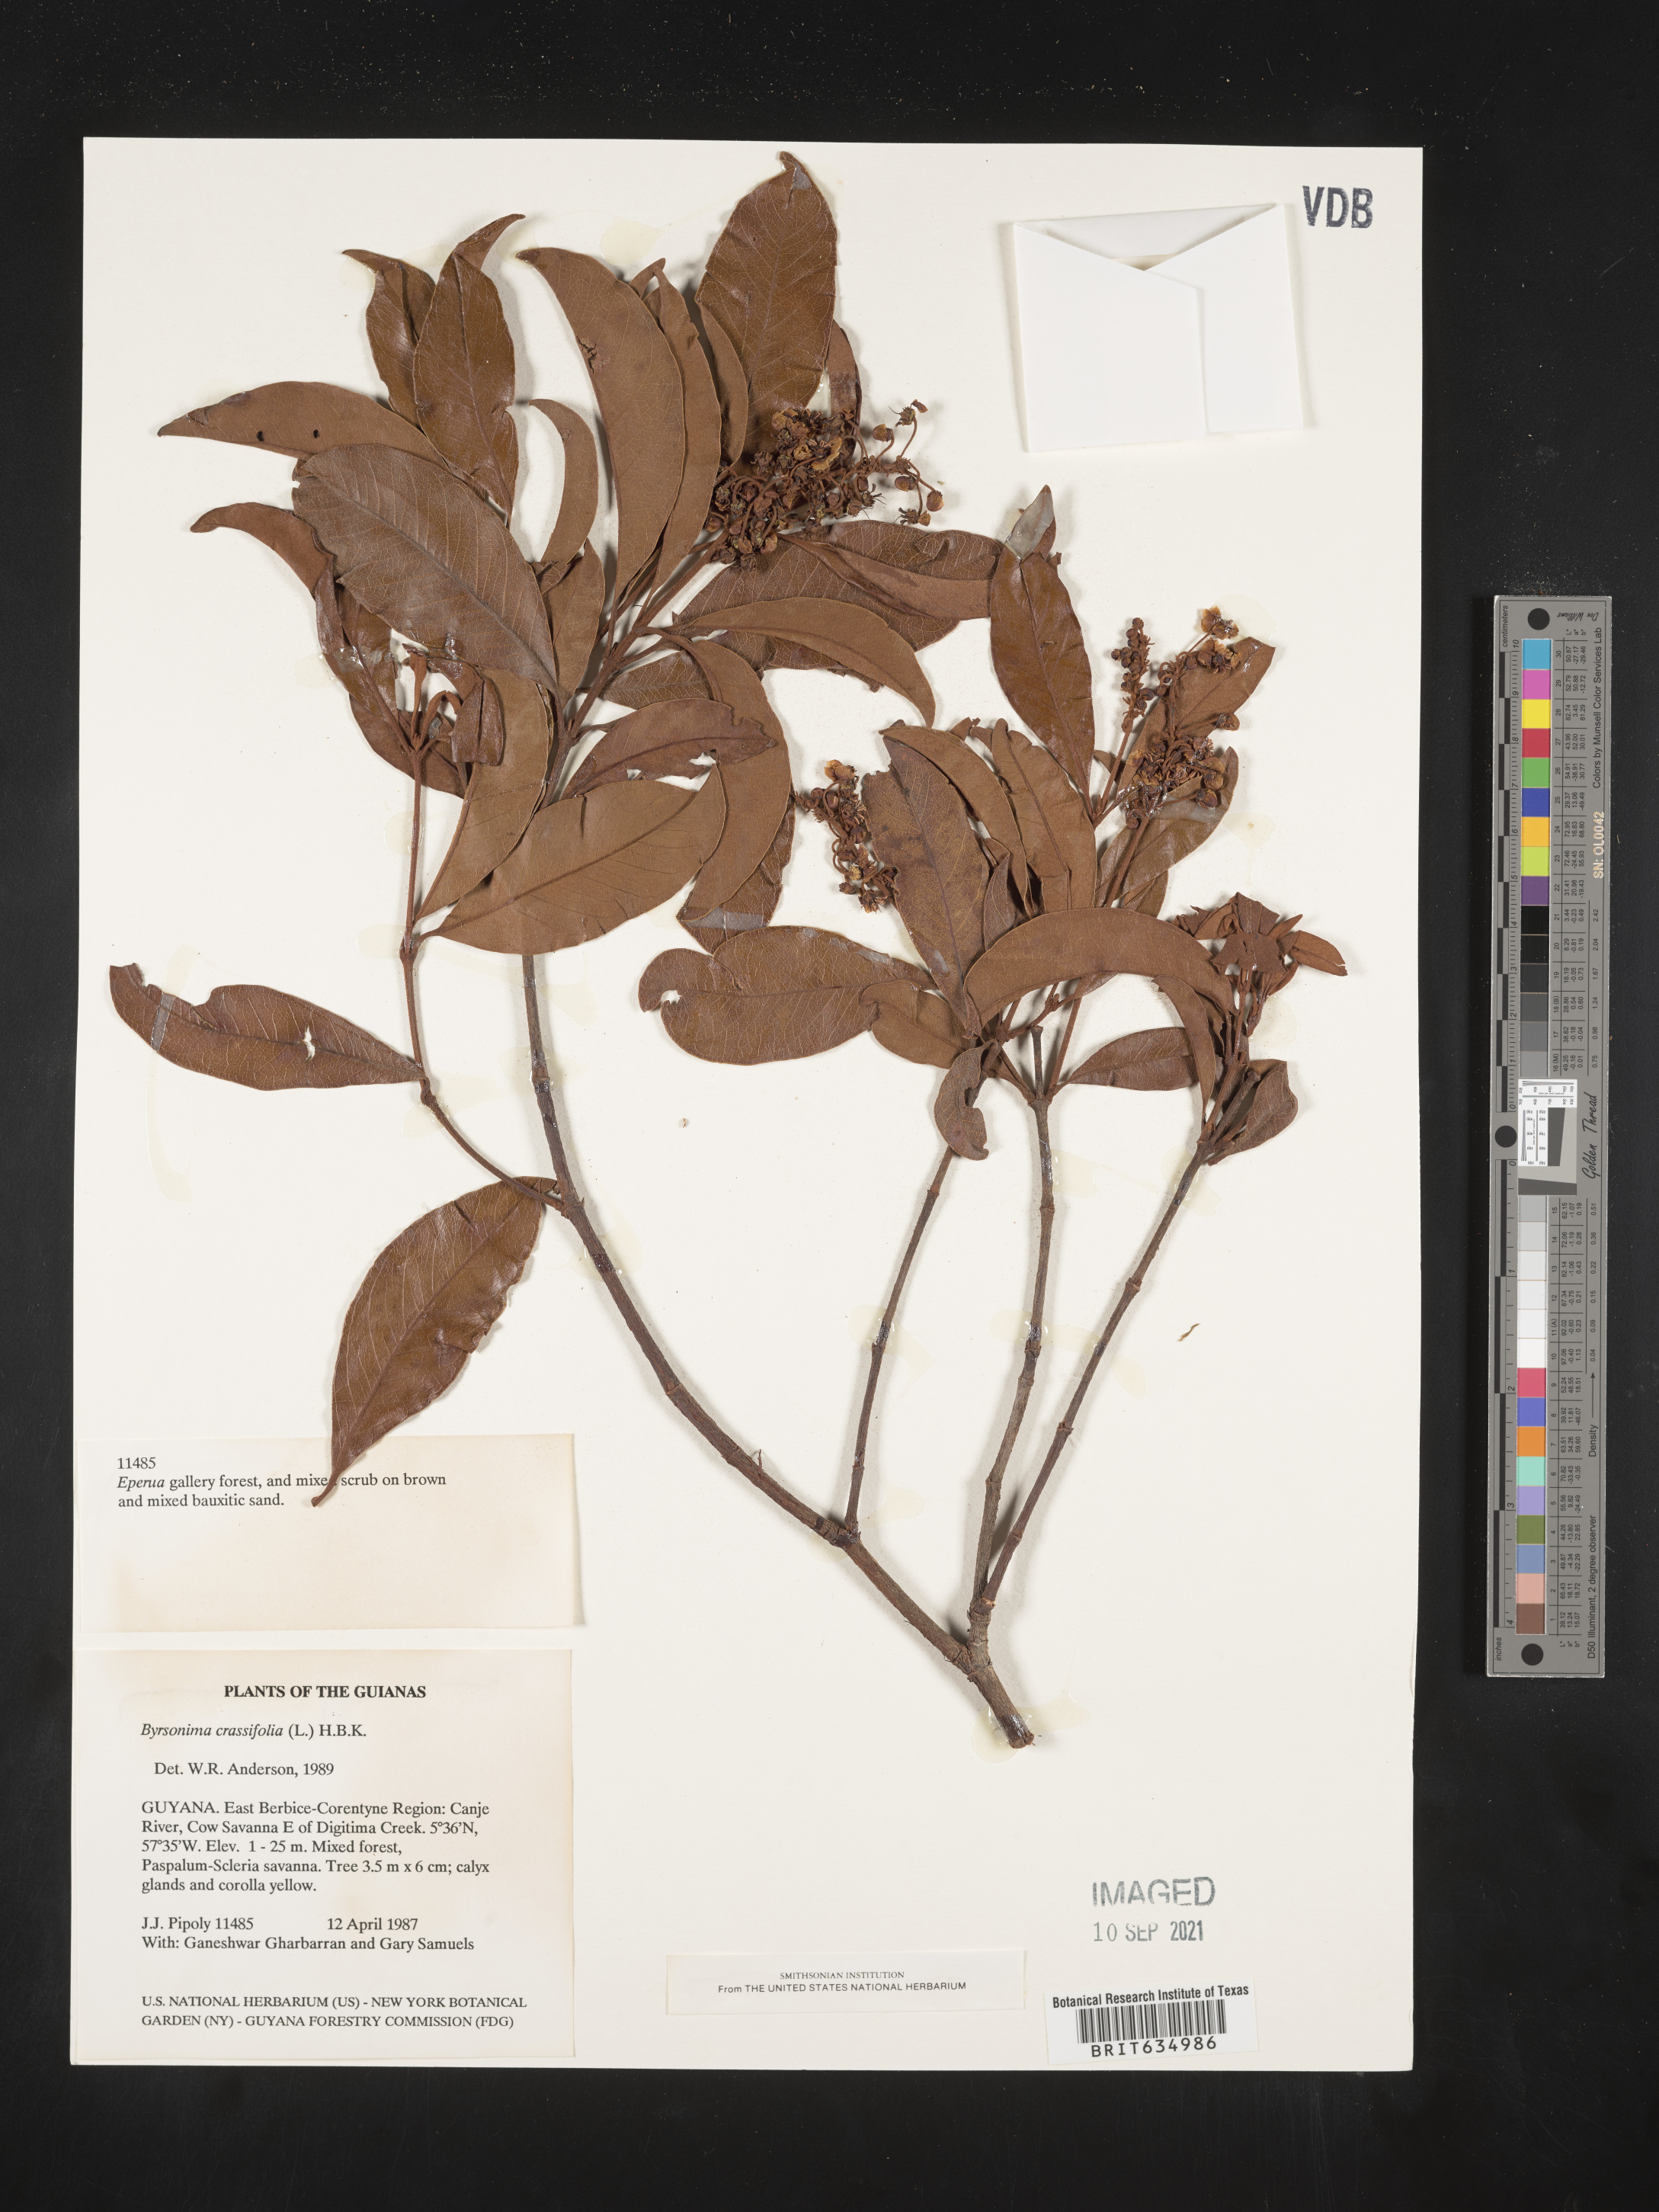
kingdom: Plantae
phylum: Tracheophyta
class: Magnoliopsida
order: Malpighiales
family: Malpighiaceae
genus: Byrsonima
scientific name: Byrsonima
